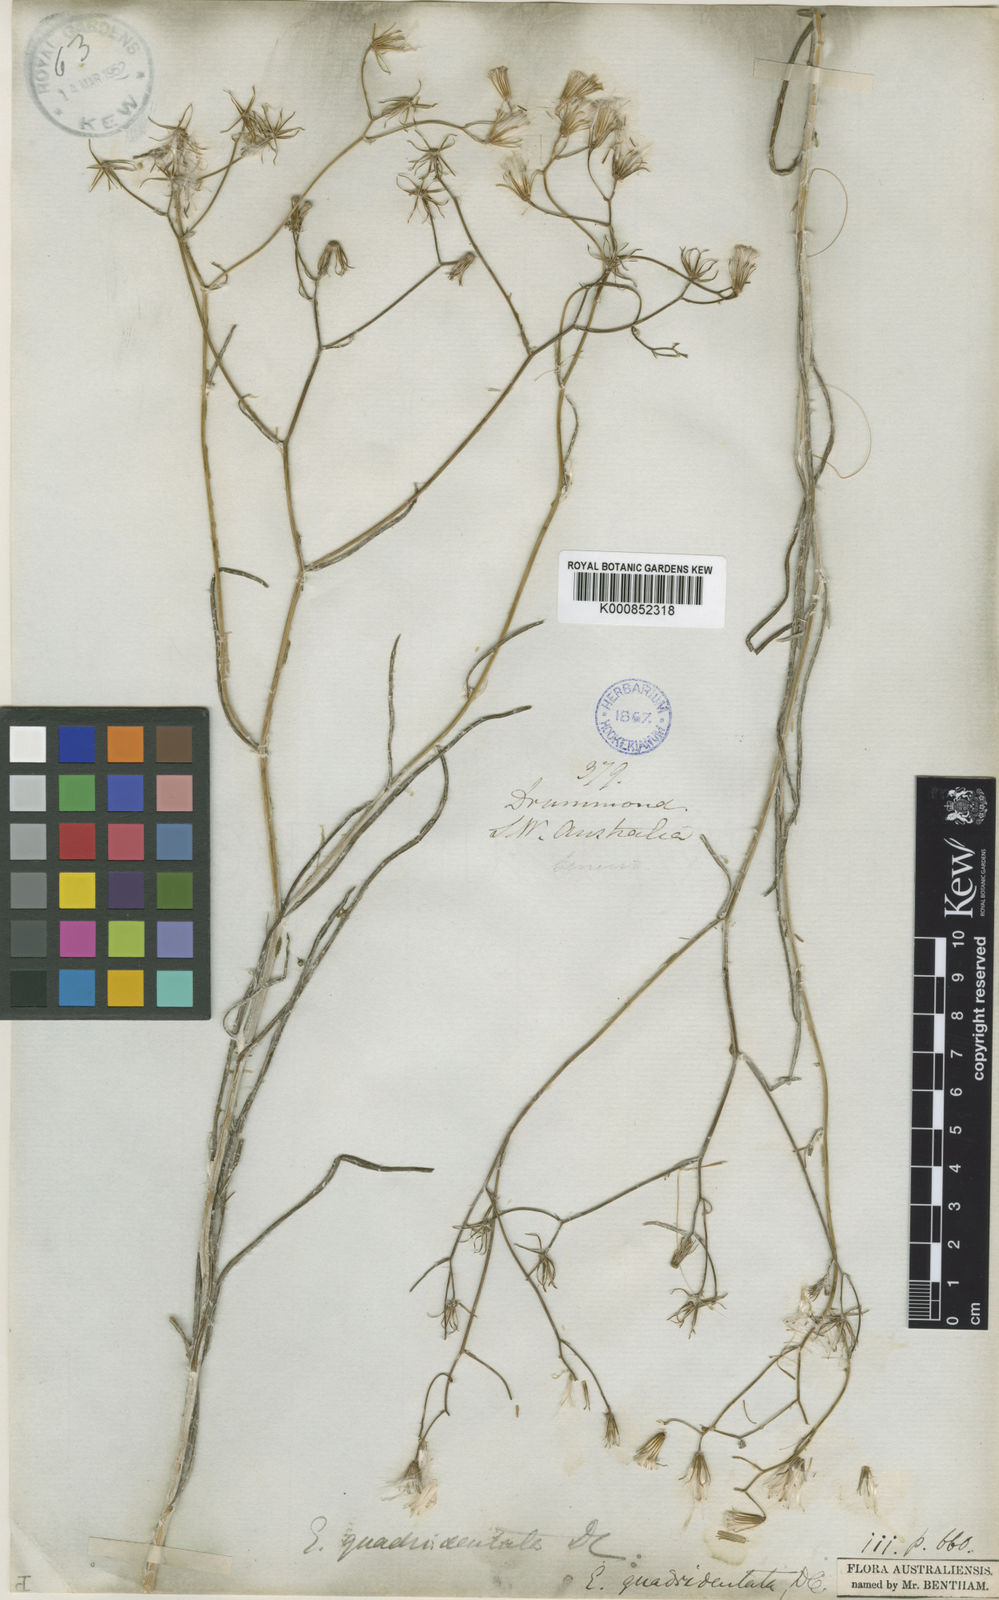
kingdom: Plantae
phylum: Tracheophyta
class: Magnoliopsida
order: Asterales
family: Asteraceae
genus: Senecio
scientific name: Senecio quadridentatus
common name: Cotton fireweed
